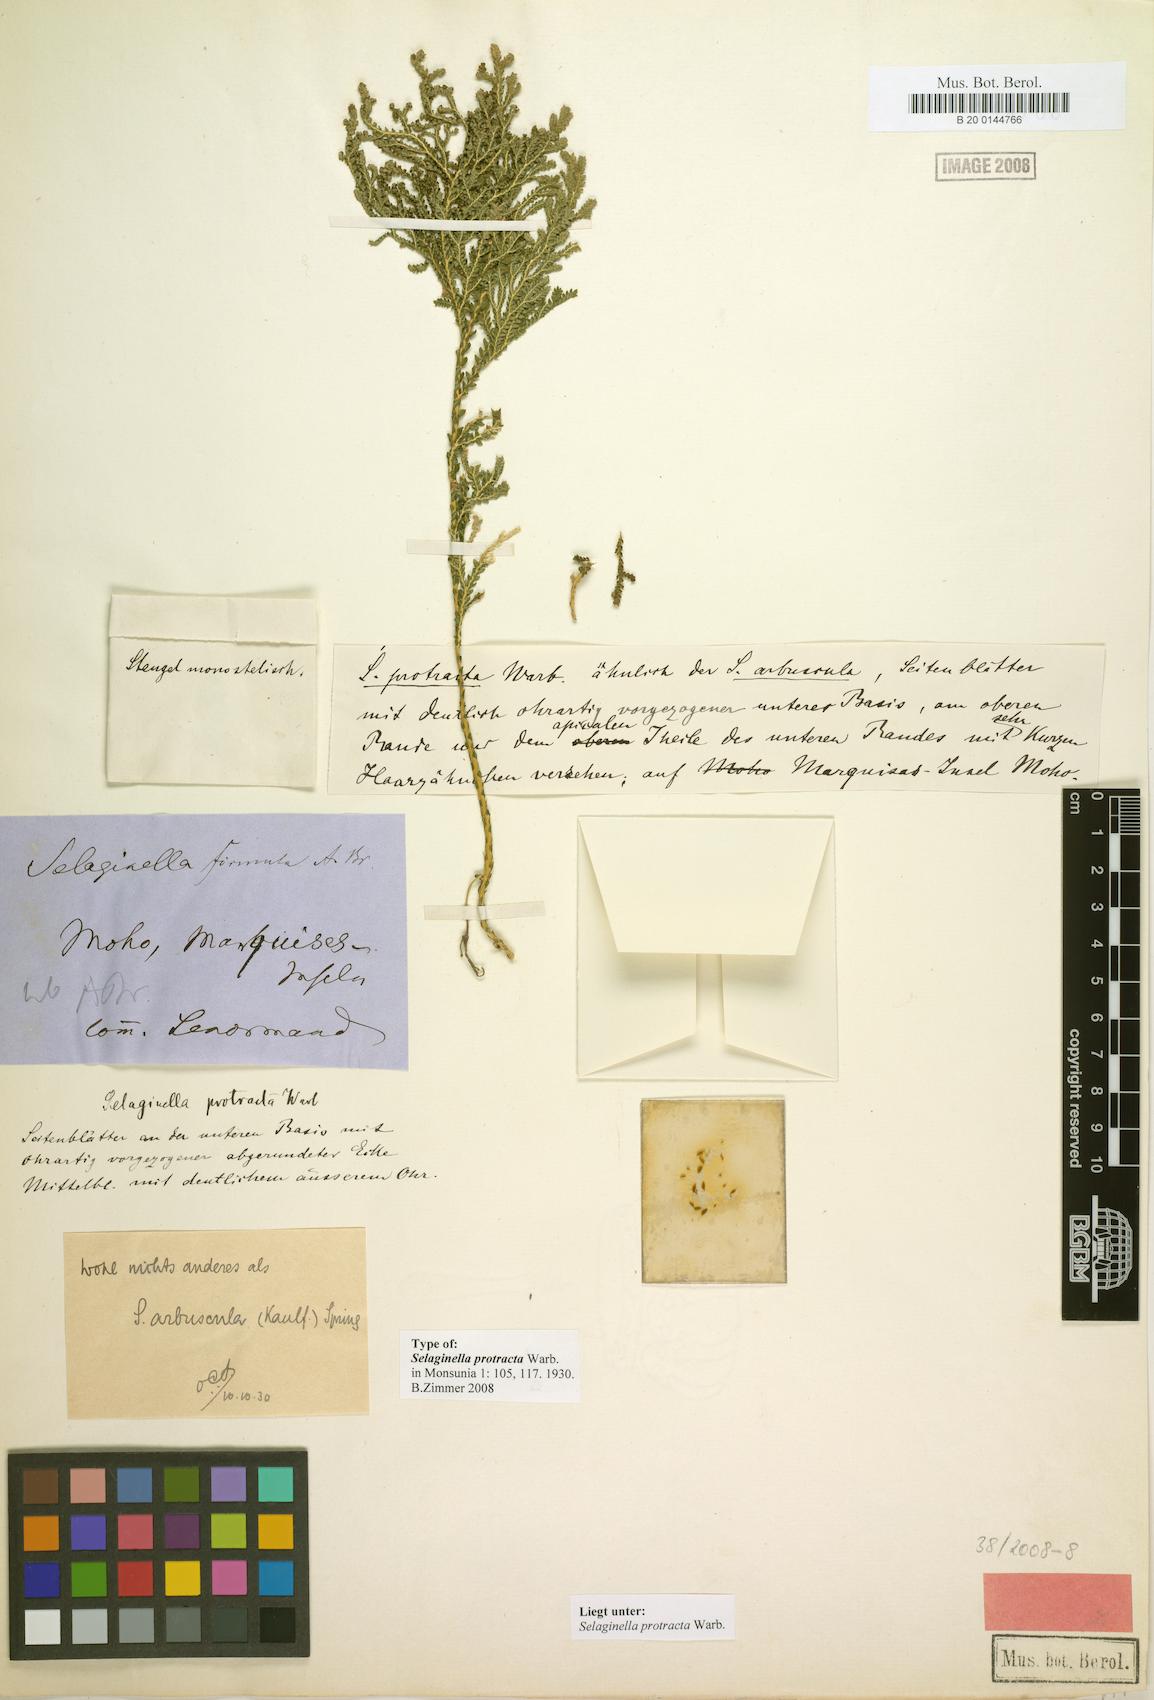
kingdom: Plantae
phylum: Tracheophyta
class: Lycopodiopsida
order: Selaginellales
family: Selaginellaceae
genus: Selaginella
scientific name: Selaginella arbuscula
